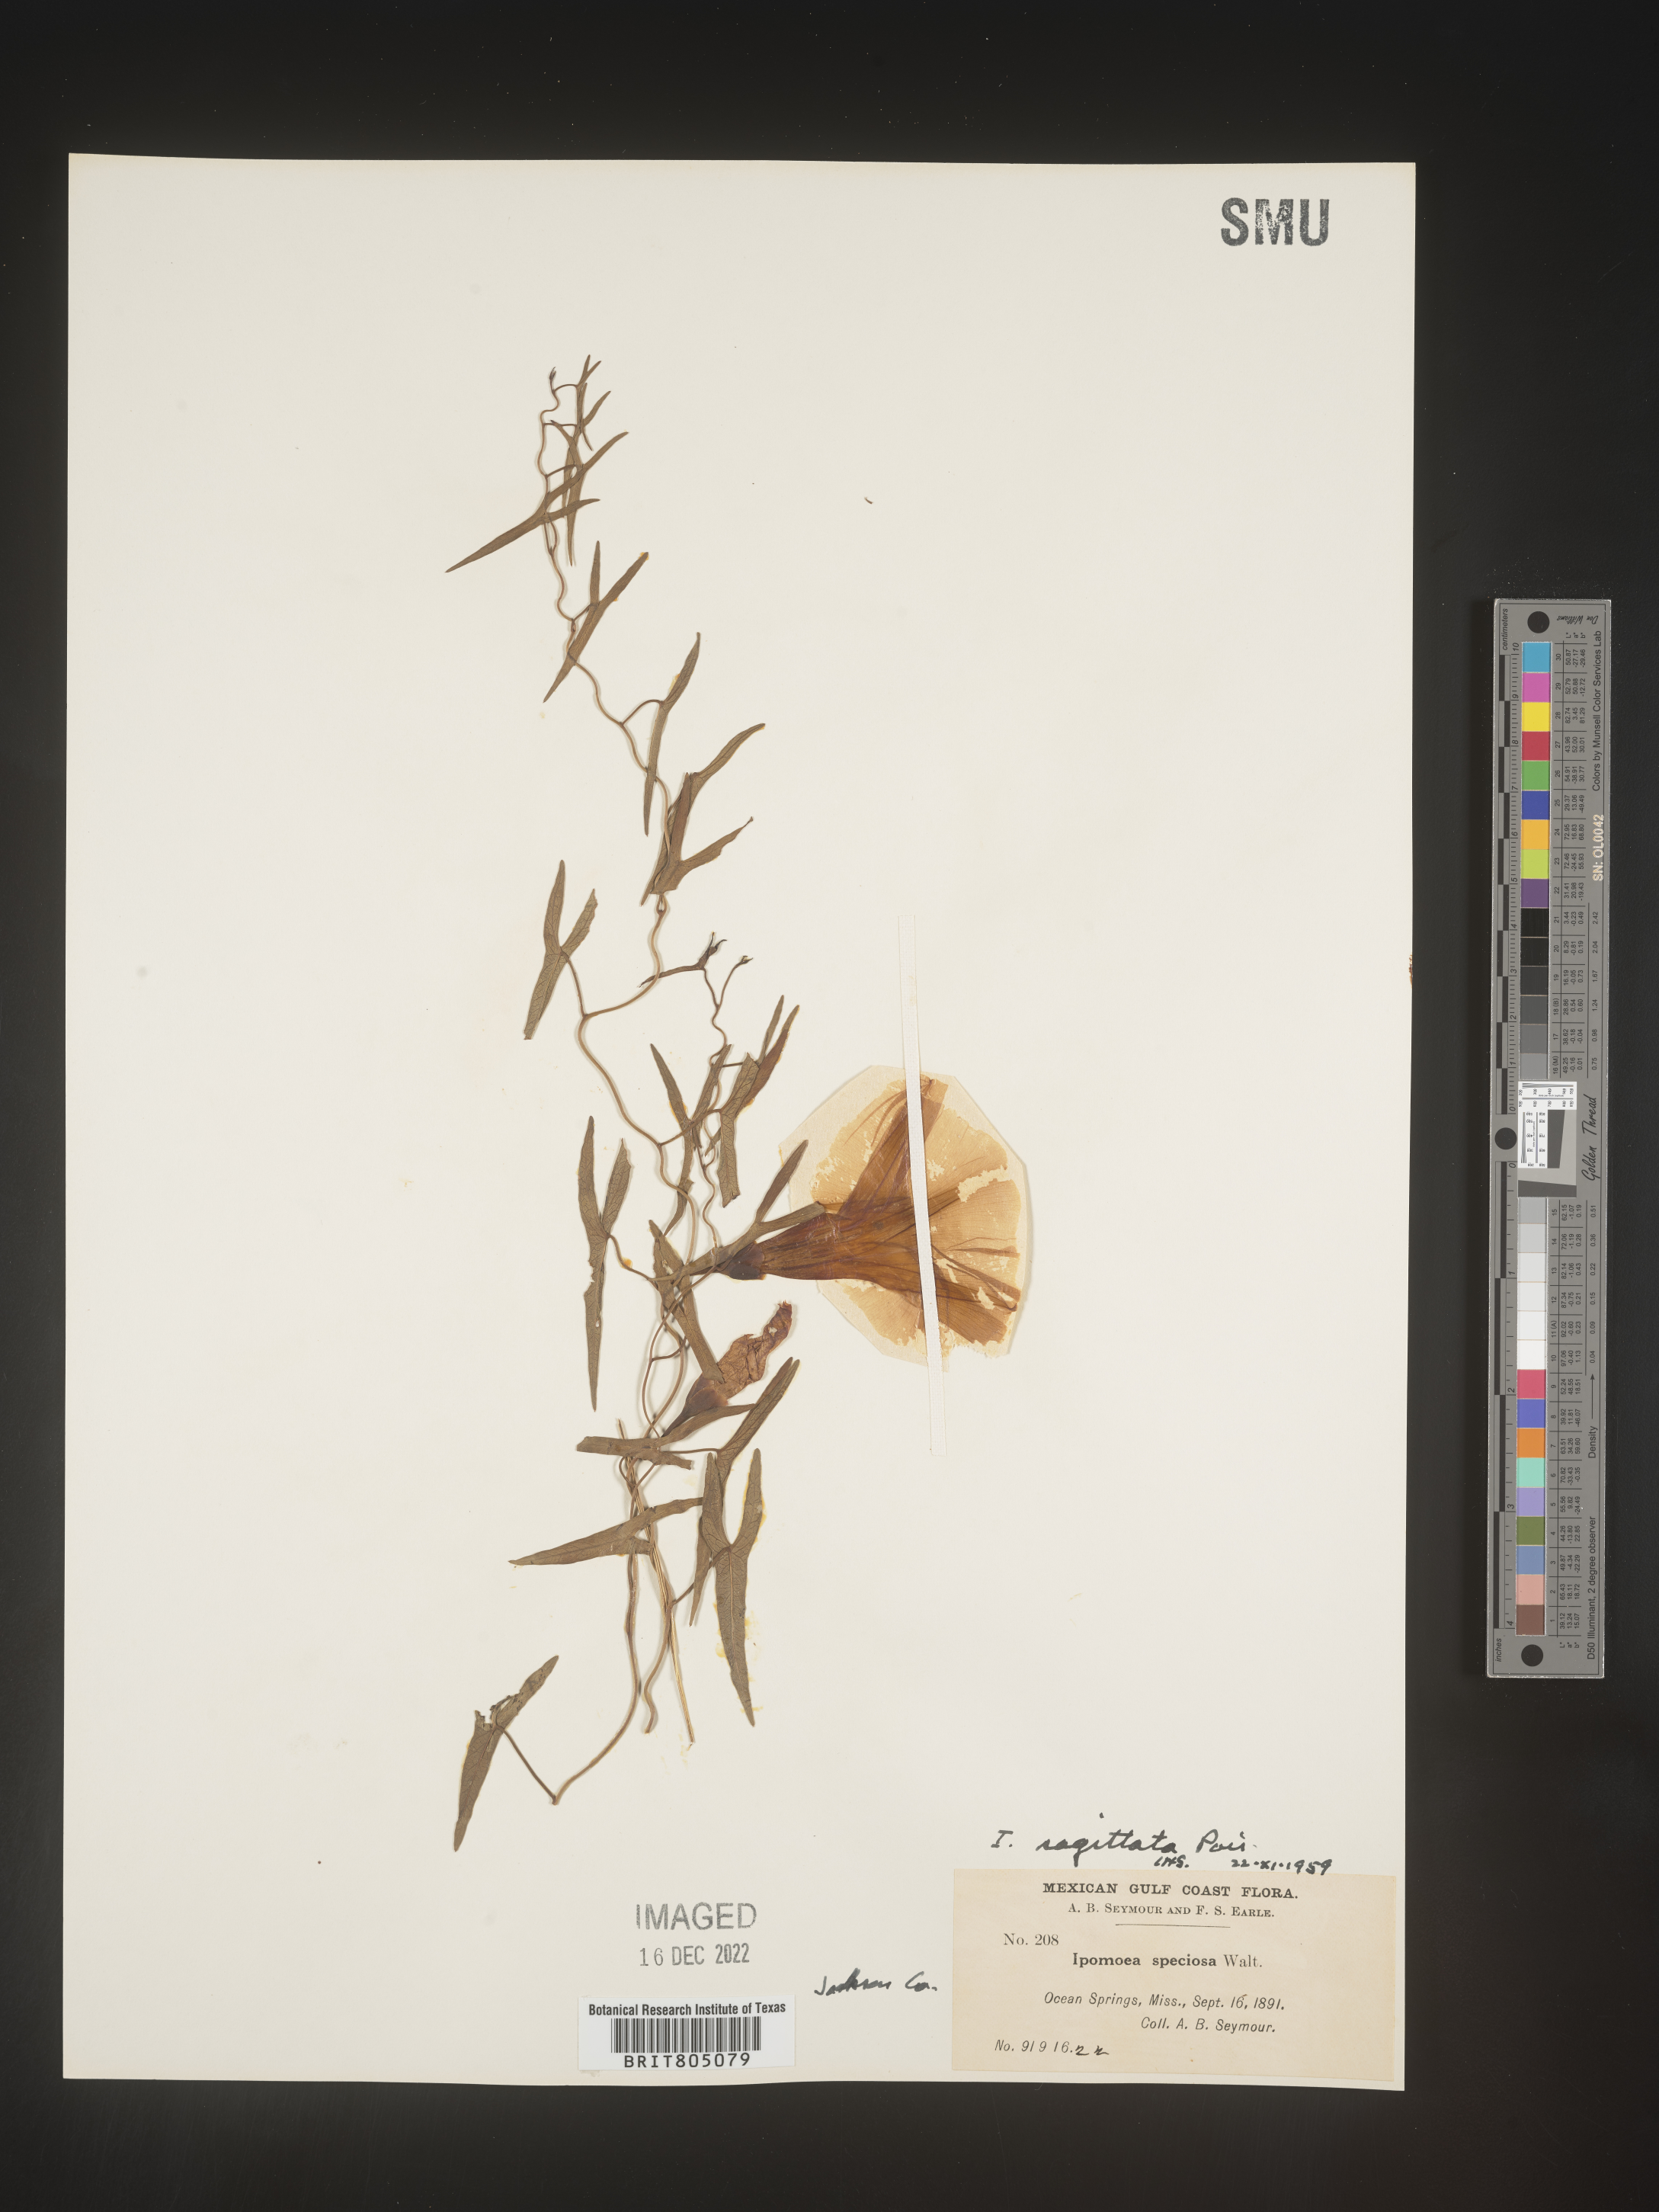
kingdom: Plantae
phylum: Tracheophyta
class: Magnoliopsida
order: Solanales
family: Convolvulaceae
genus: Ipomoea
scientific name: Ipomoea sinensis
